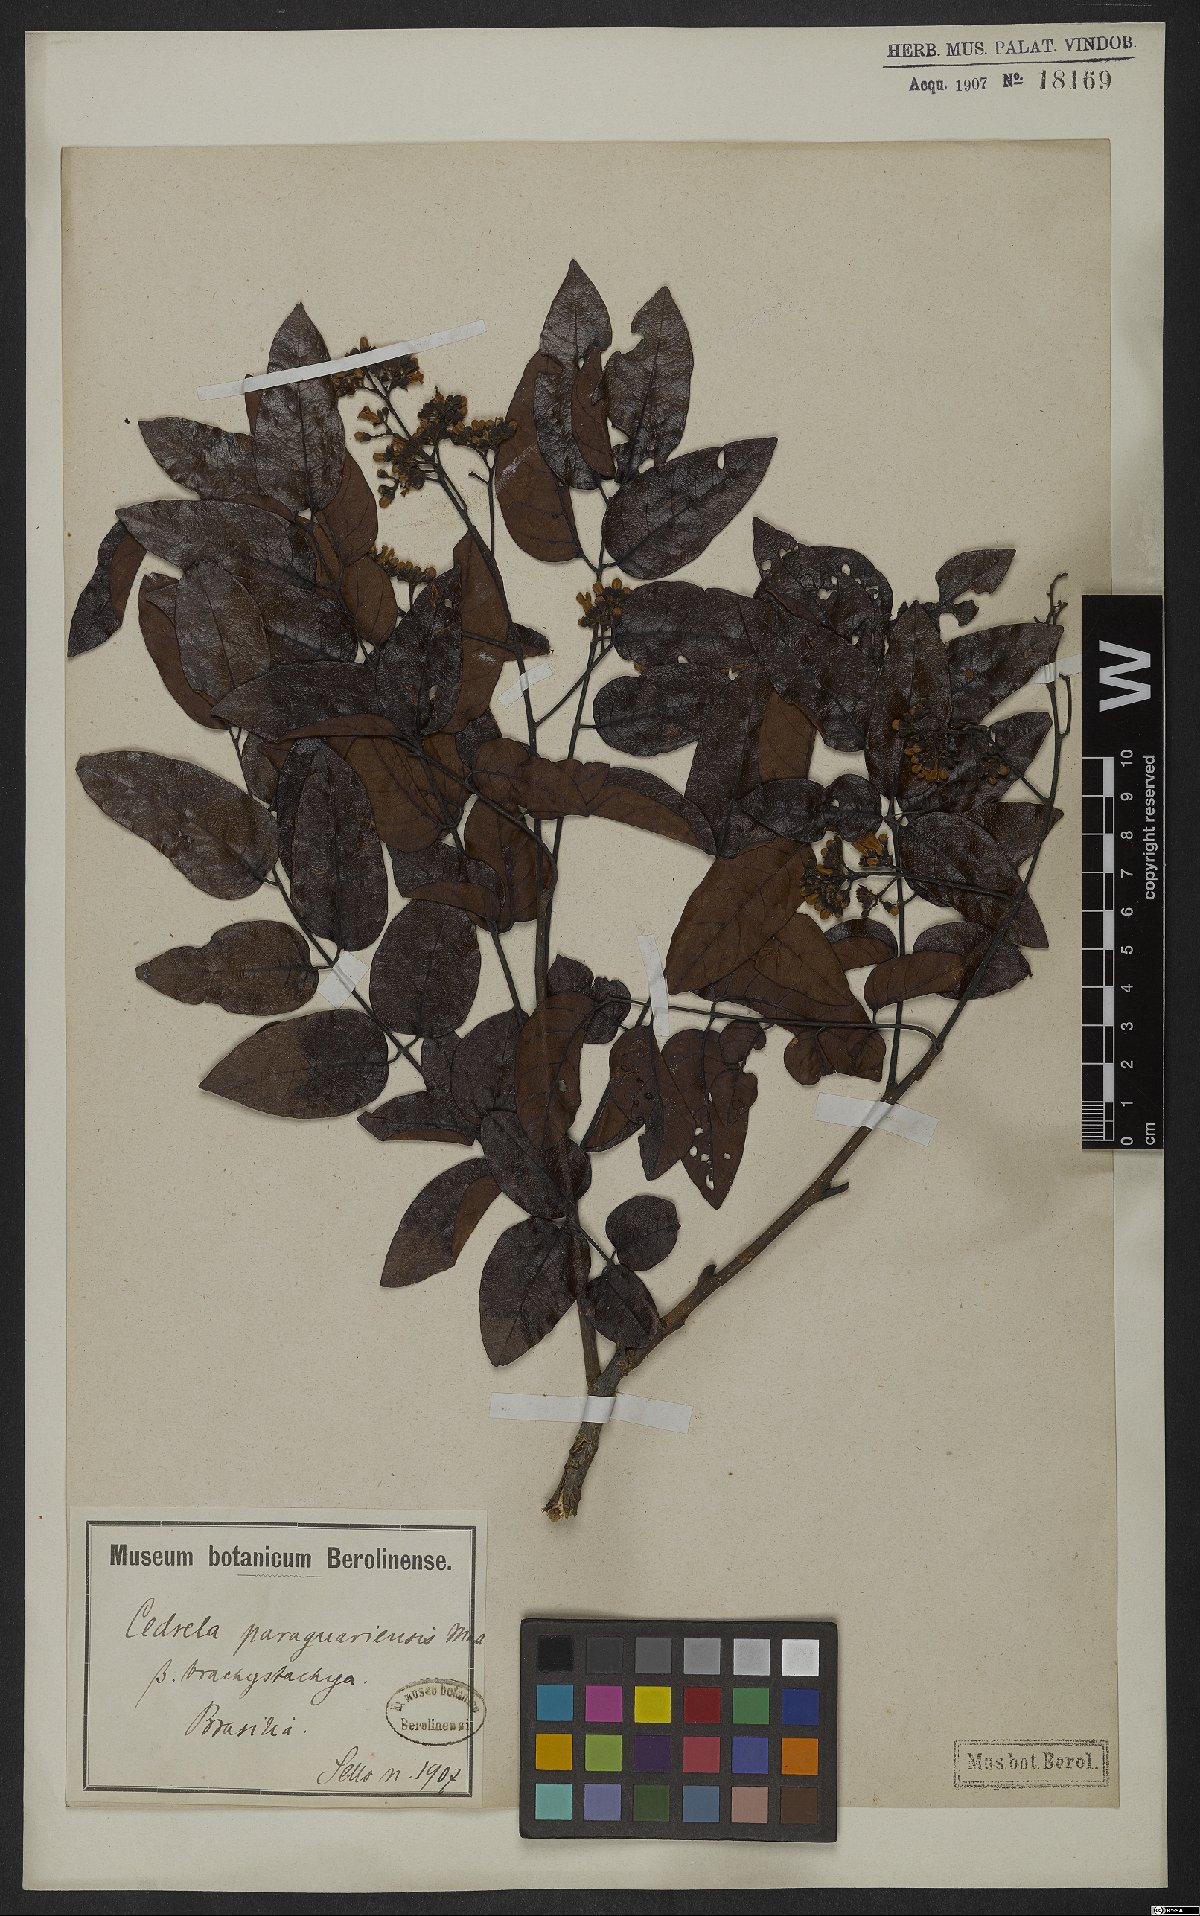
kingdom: Plantae
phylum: Tracheophyta
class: Magnoliopsida
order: Sapindales
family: Meliaceae
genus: Cedrela
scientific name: Cedrela odorata
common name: Red cedar
